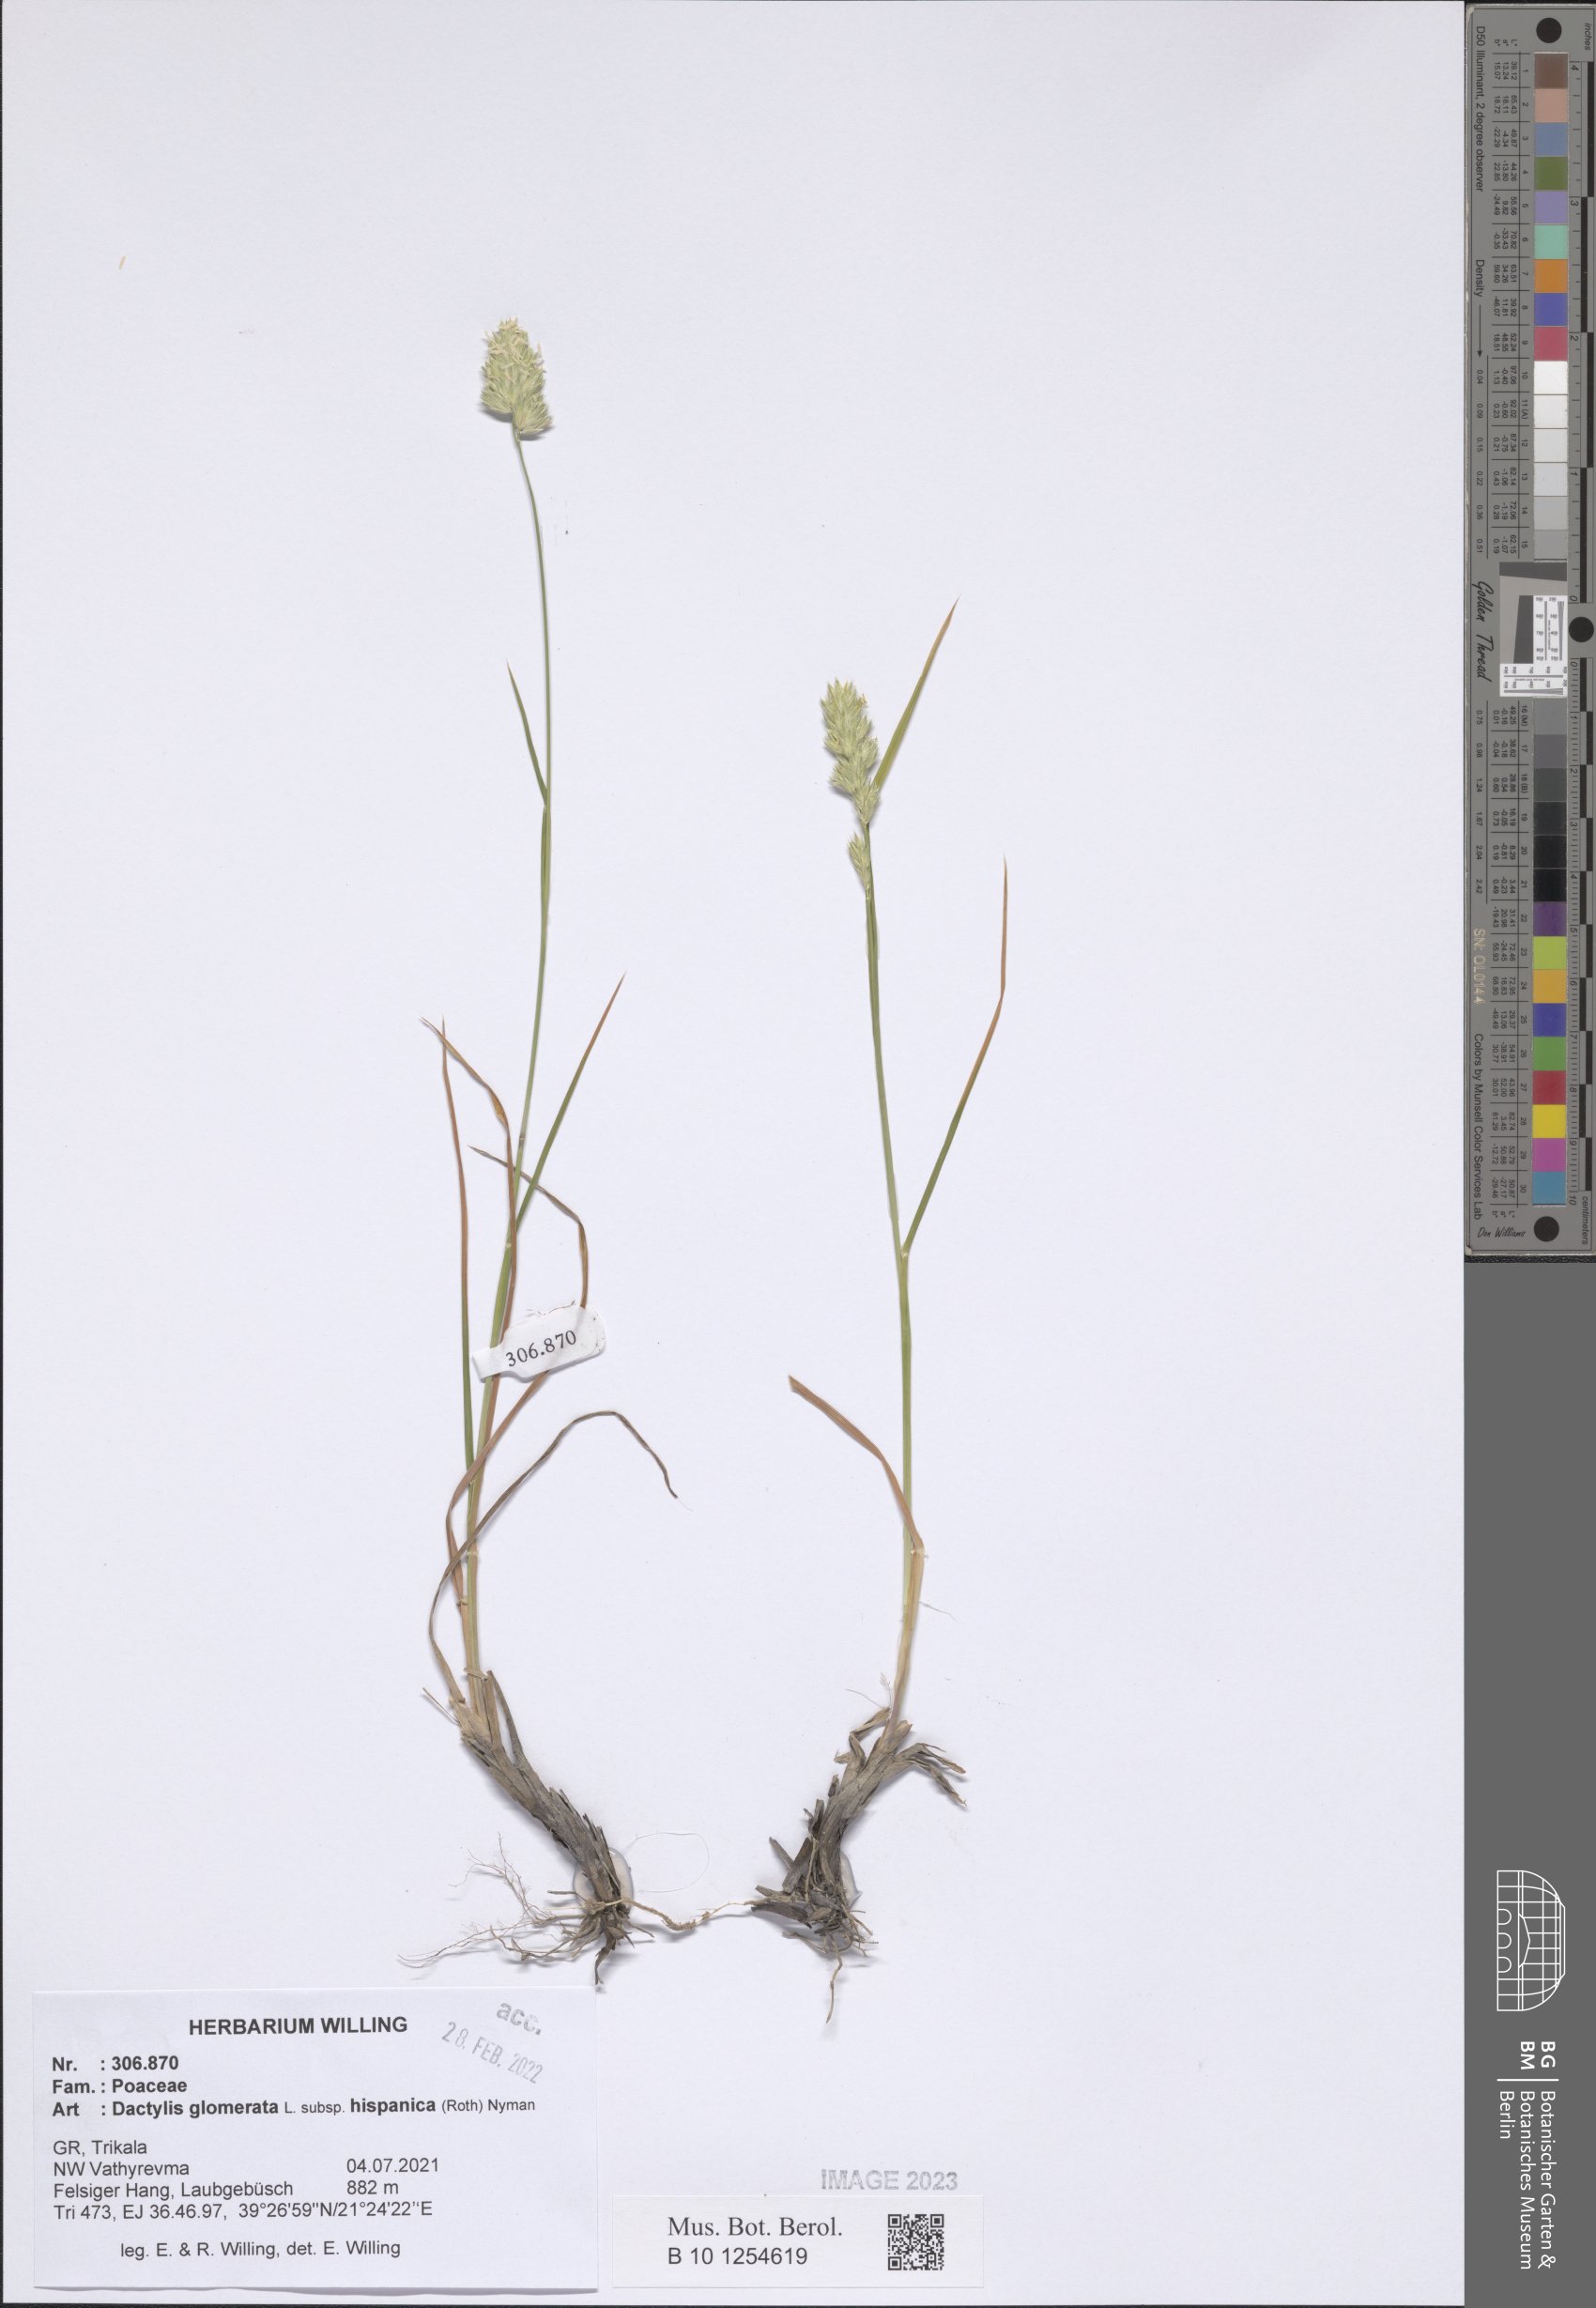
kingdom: Plantae
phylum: Tracheophyta
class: Liliopsida
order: Poales
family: Poaceae
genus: Dactylis
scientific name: Dactylis glomerata
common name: Orchardgrass
